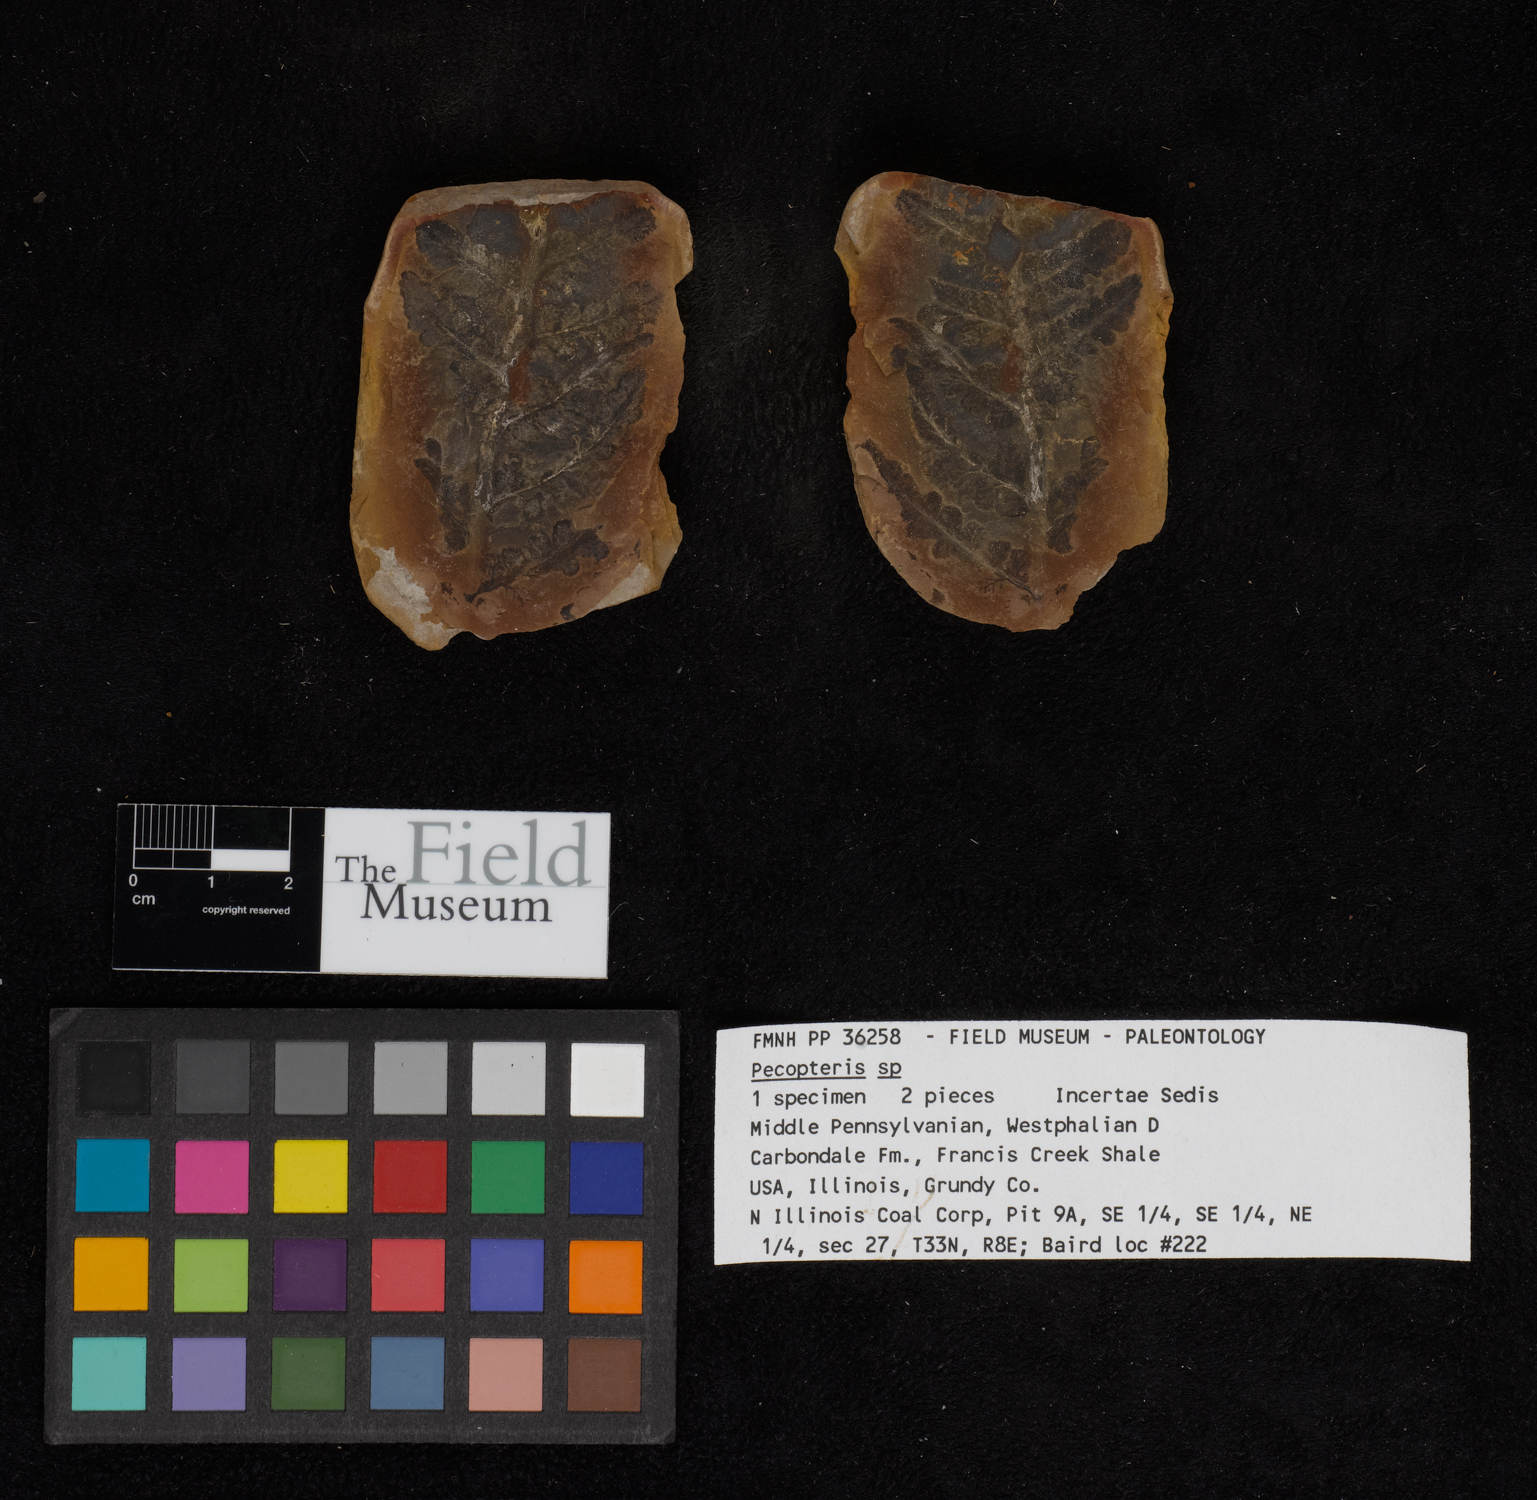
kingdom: Plantae
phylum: Tracheophyta
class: Polypodiopsida
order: Marattiales
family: Asterothecaceae
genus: Pecopteris
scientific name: Pecopteris
